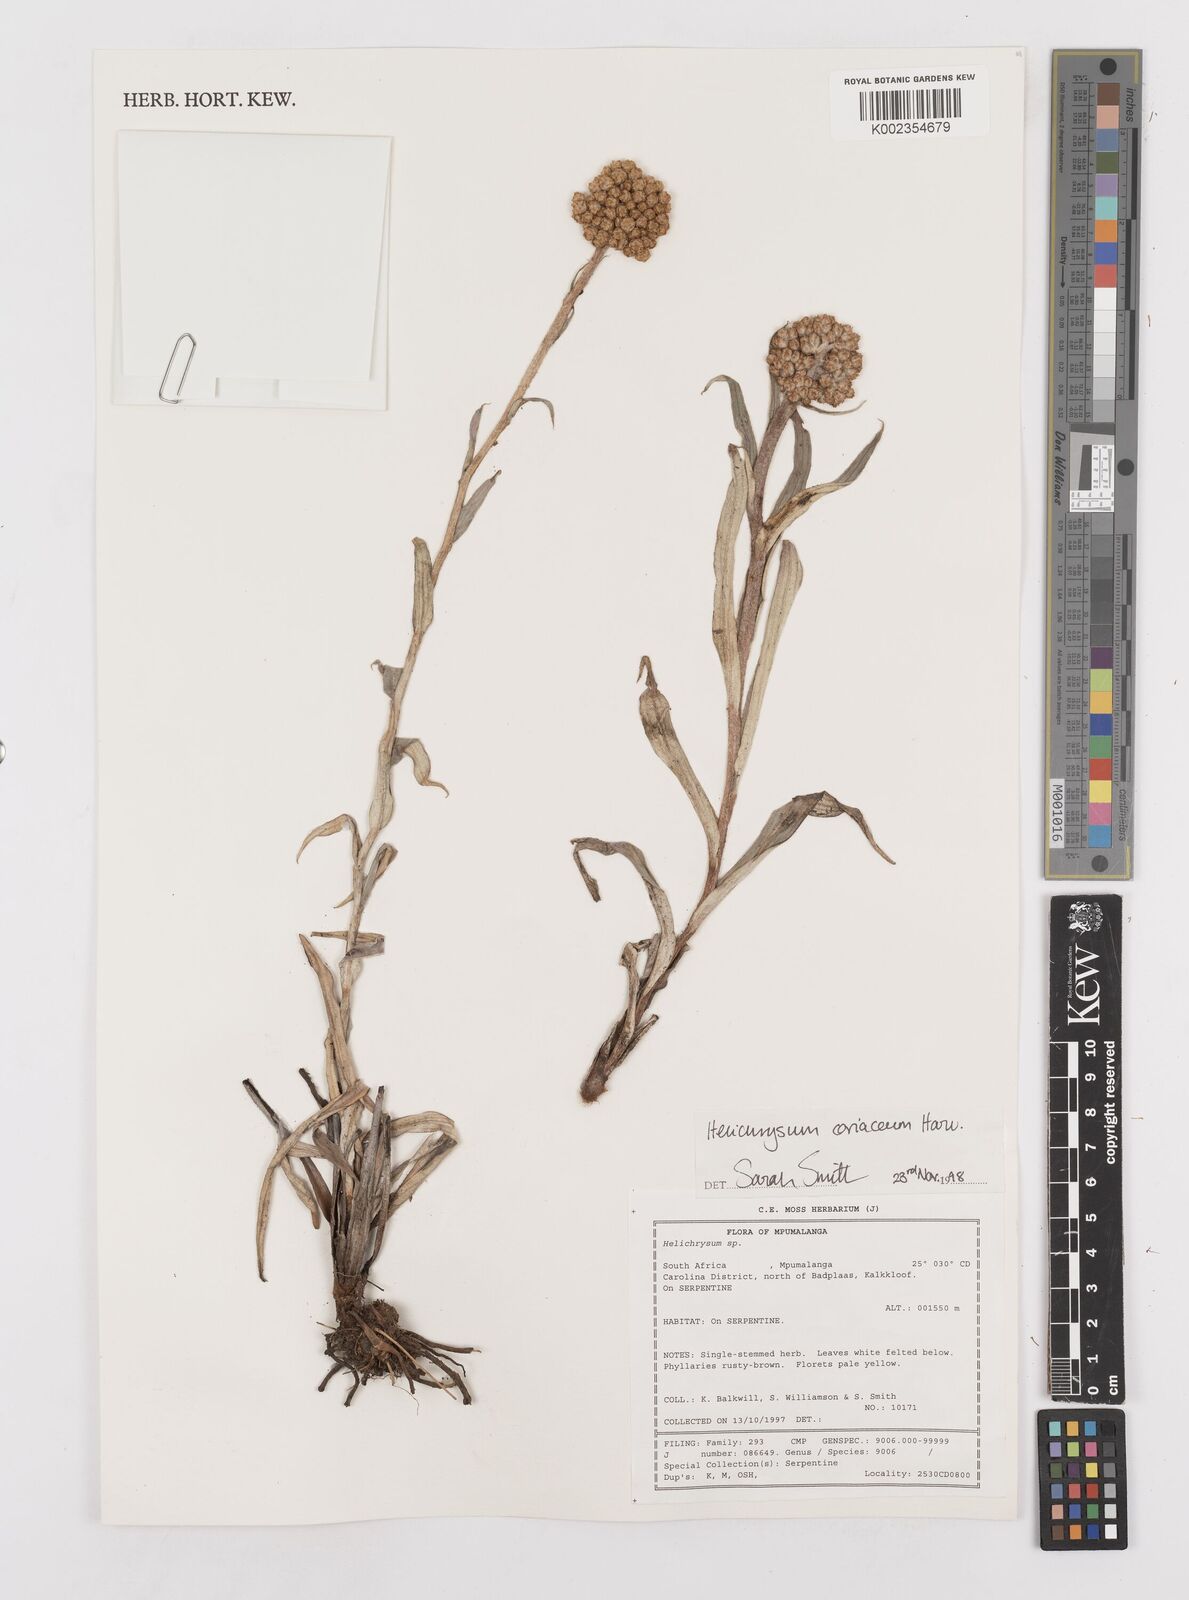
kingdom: Plantae
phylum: Tracheophyta
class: Magnoliopsida
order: Asterales
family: Asteraceae
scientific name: Asteraceae
